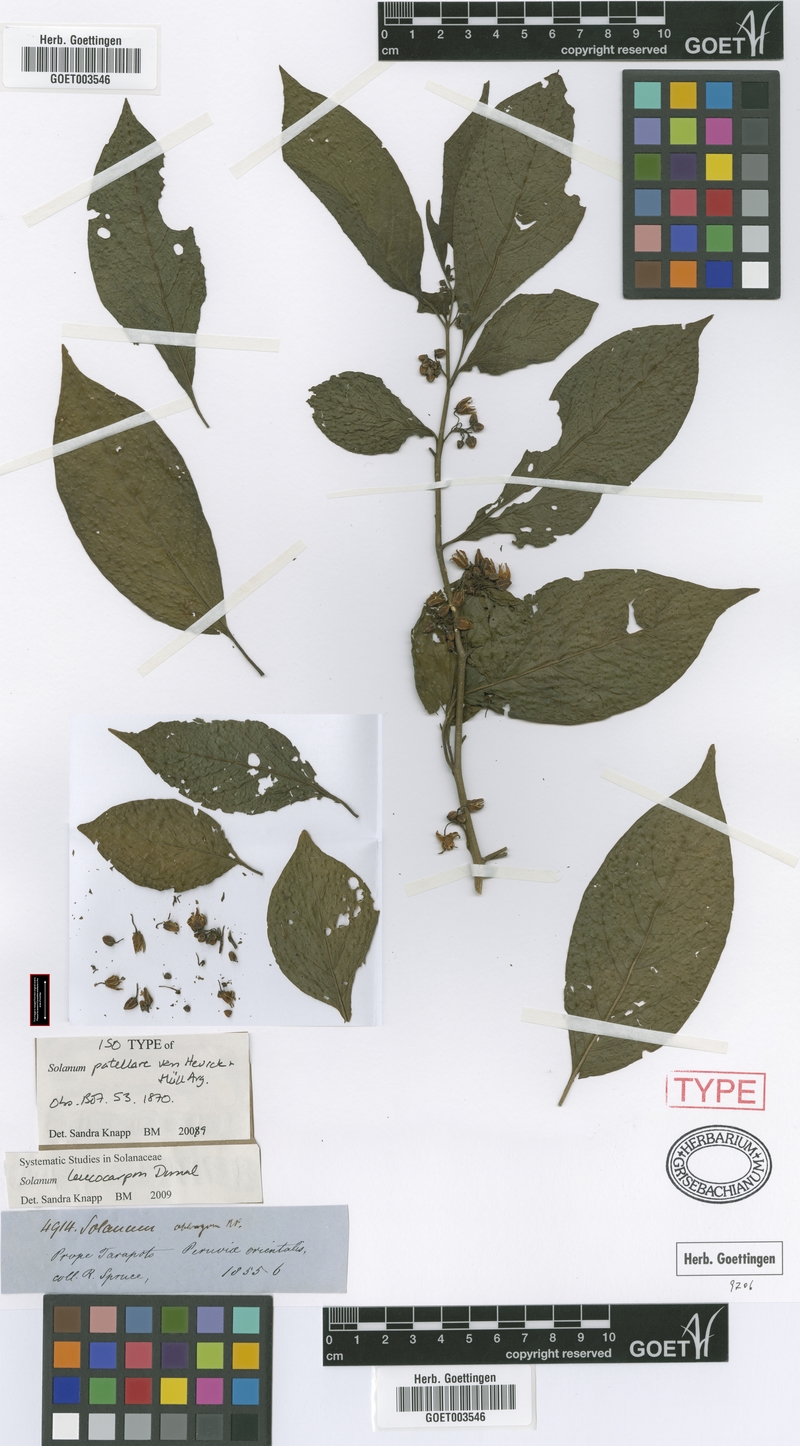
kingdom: Plantae
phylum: Tracheophyta
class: Magnoliopsida
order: Solanales
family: Solanaceae
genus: Solanum
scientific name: Solanum leucocarpon
